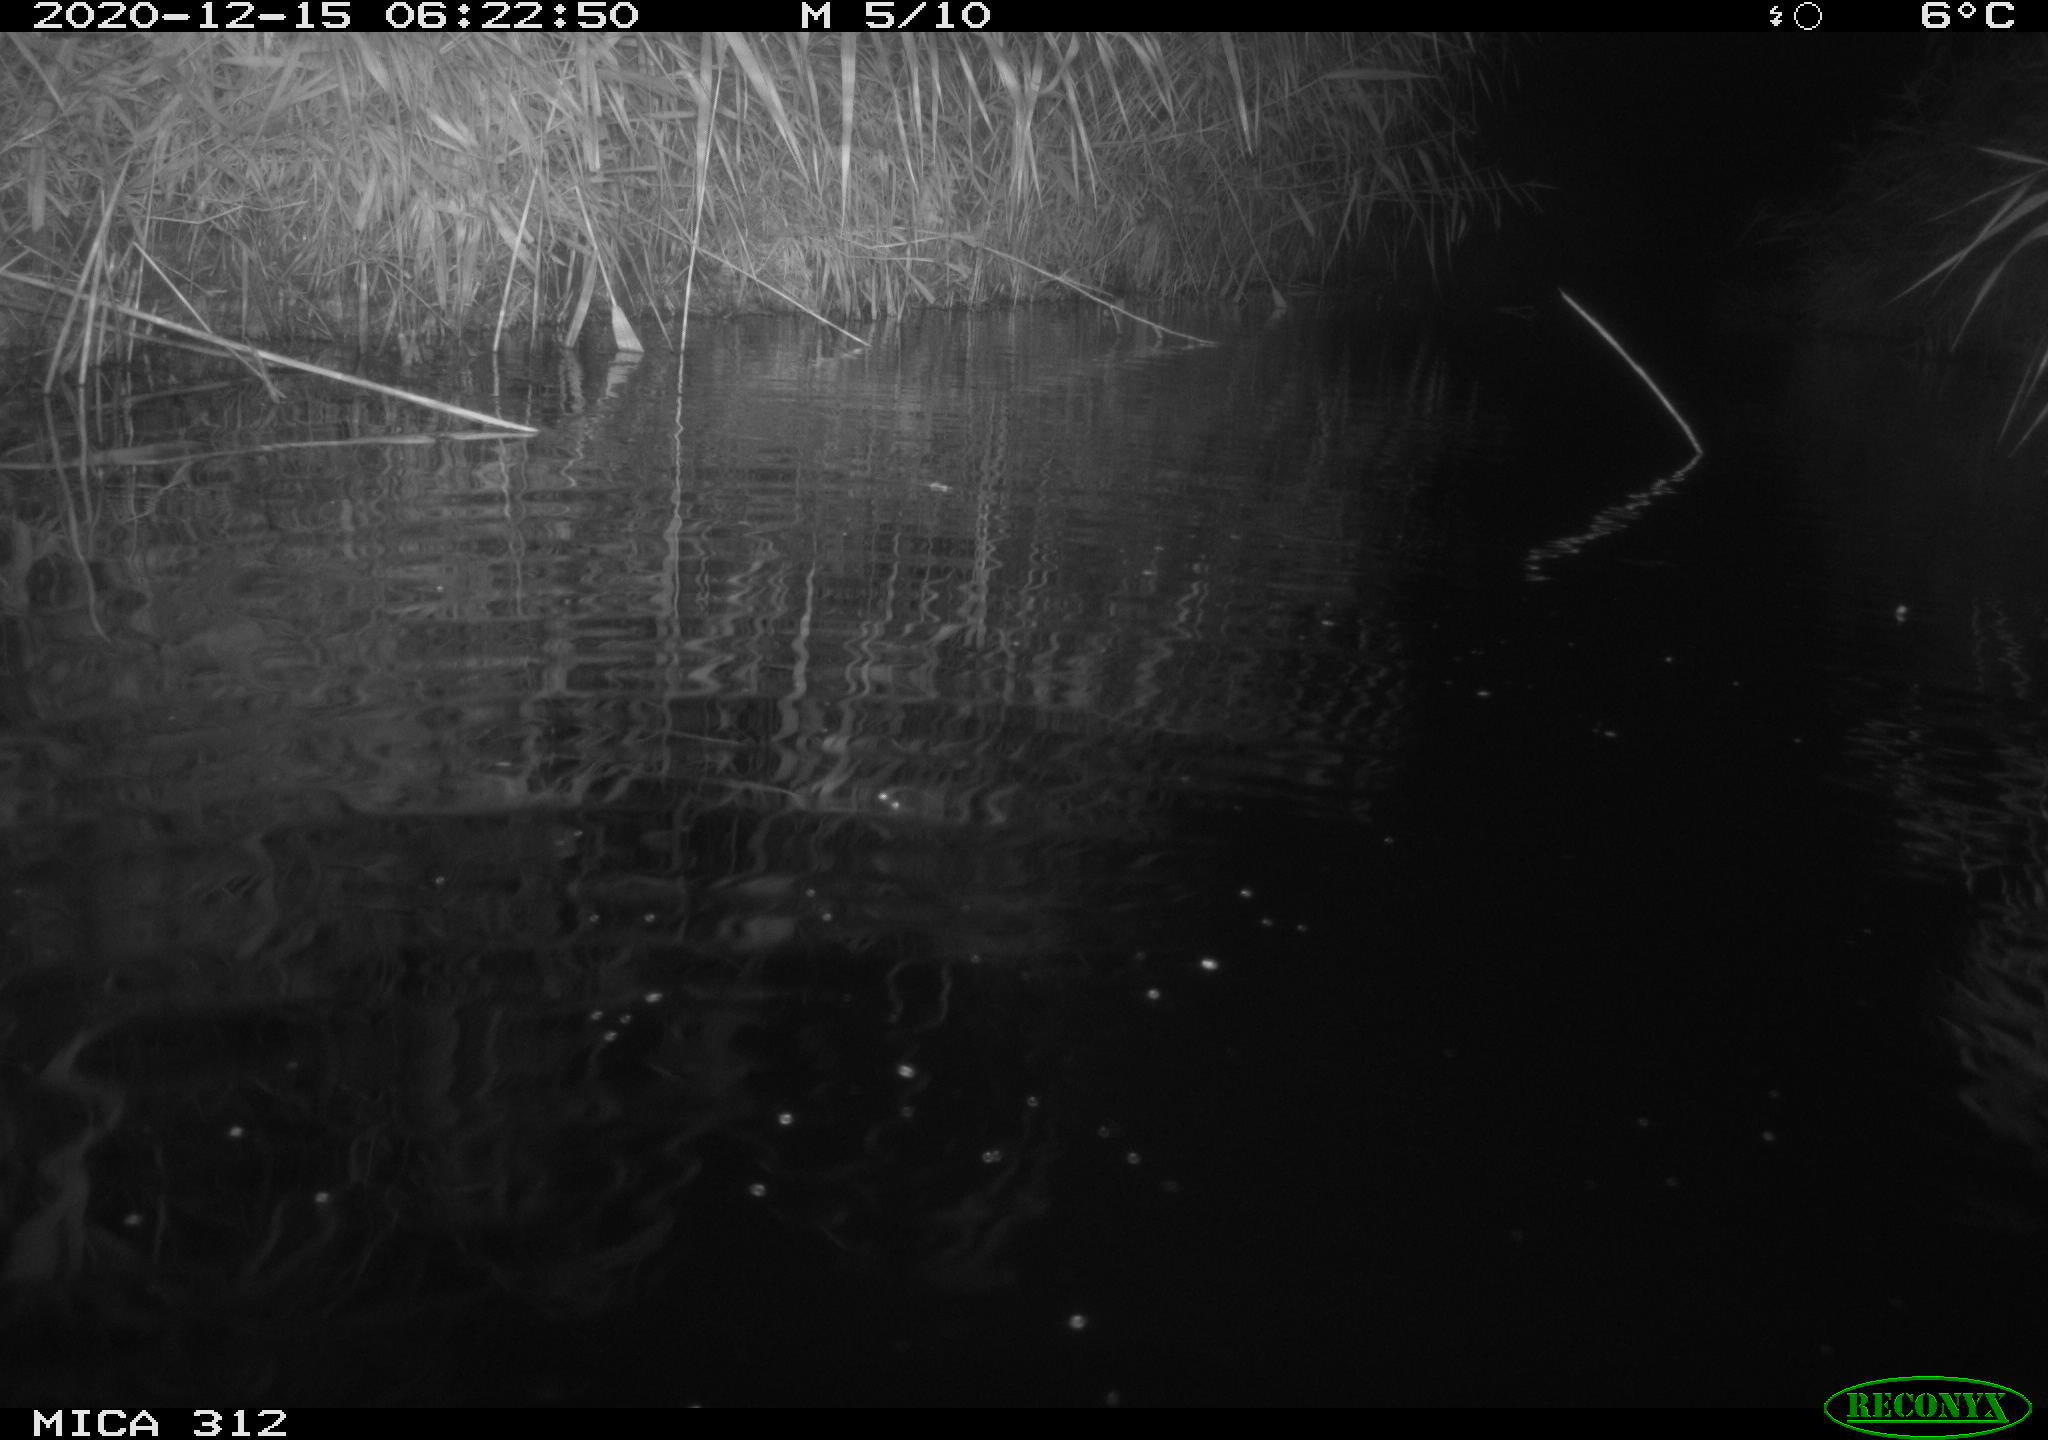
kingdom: Animalia
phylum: Chordata
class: Mammalia
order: Rodentia
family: Muridae
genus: Rattus
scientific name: Rattus norvegicus
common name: Brown rat
